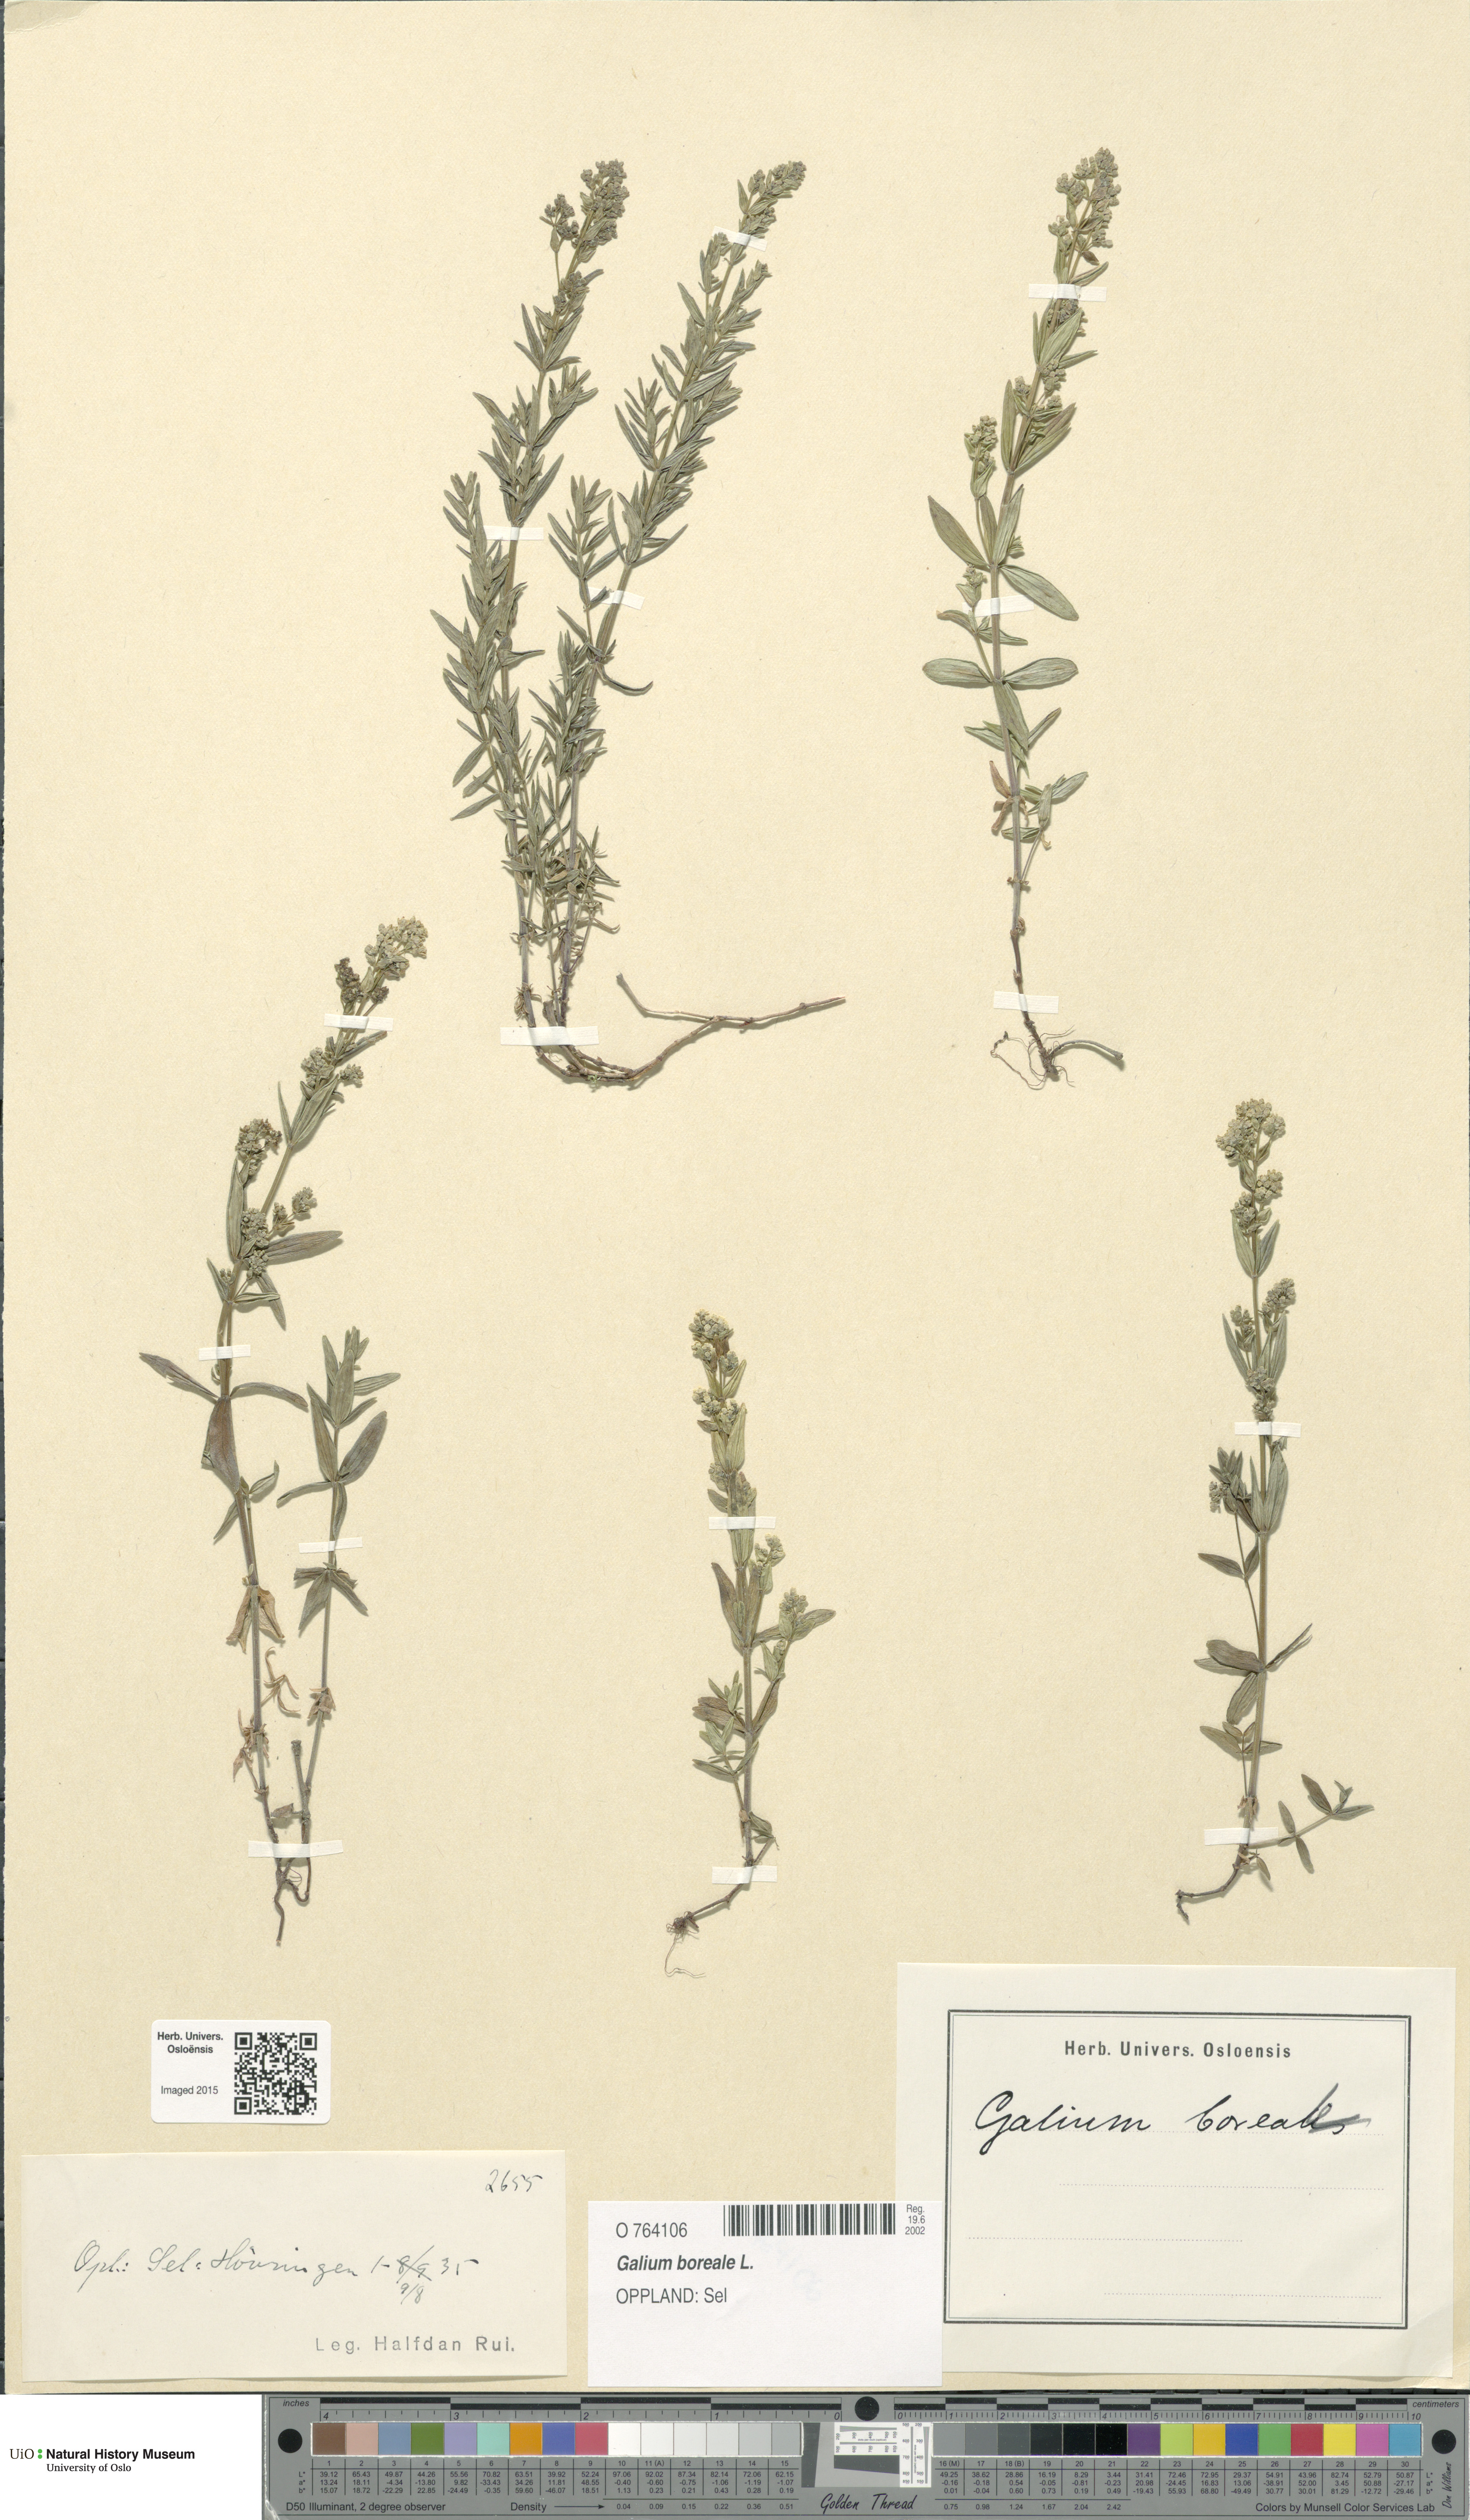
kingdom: Plantae
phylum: Tracheophyta
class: Magnoliopsida
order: Gentianales
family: Rubiaceae
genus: Galium
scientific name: Galium boreale
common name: Northern bedstraw
